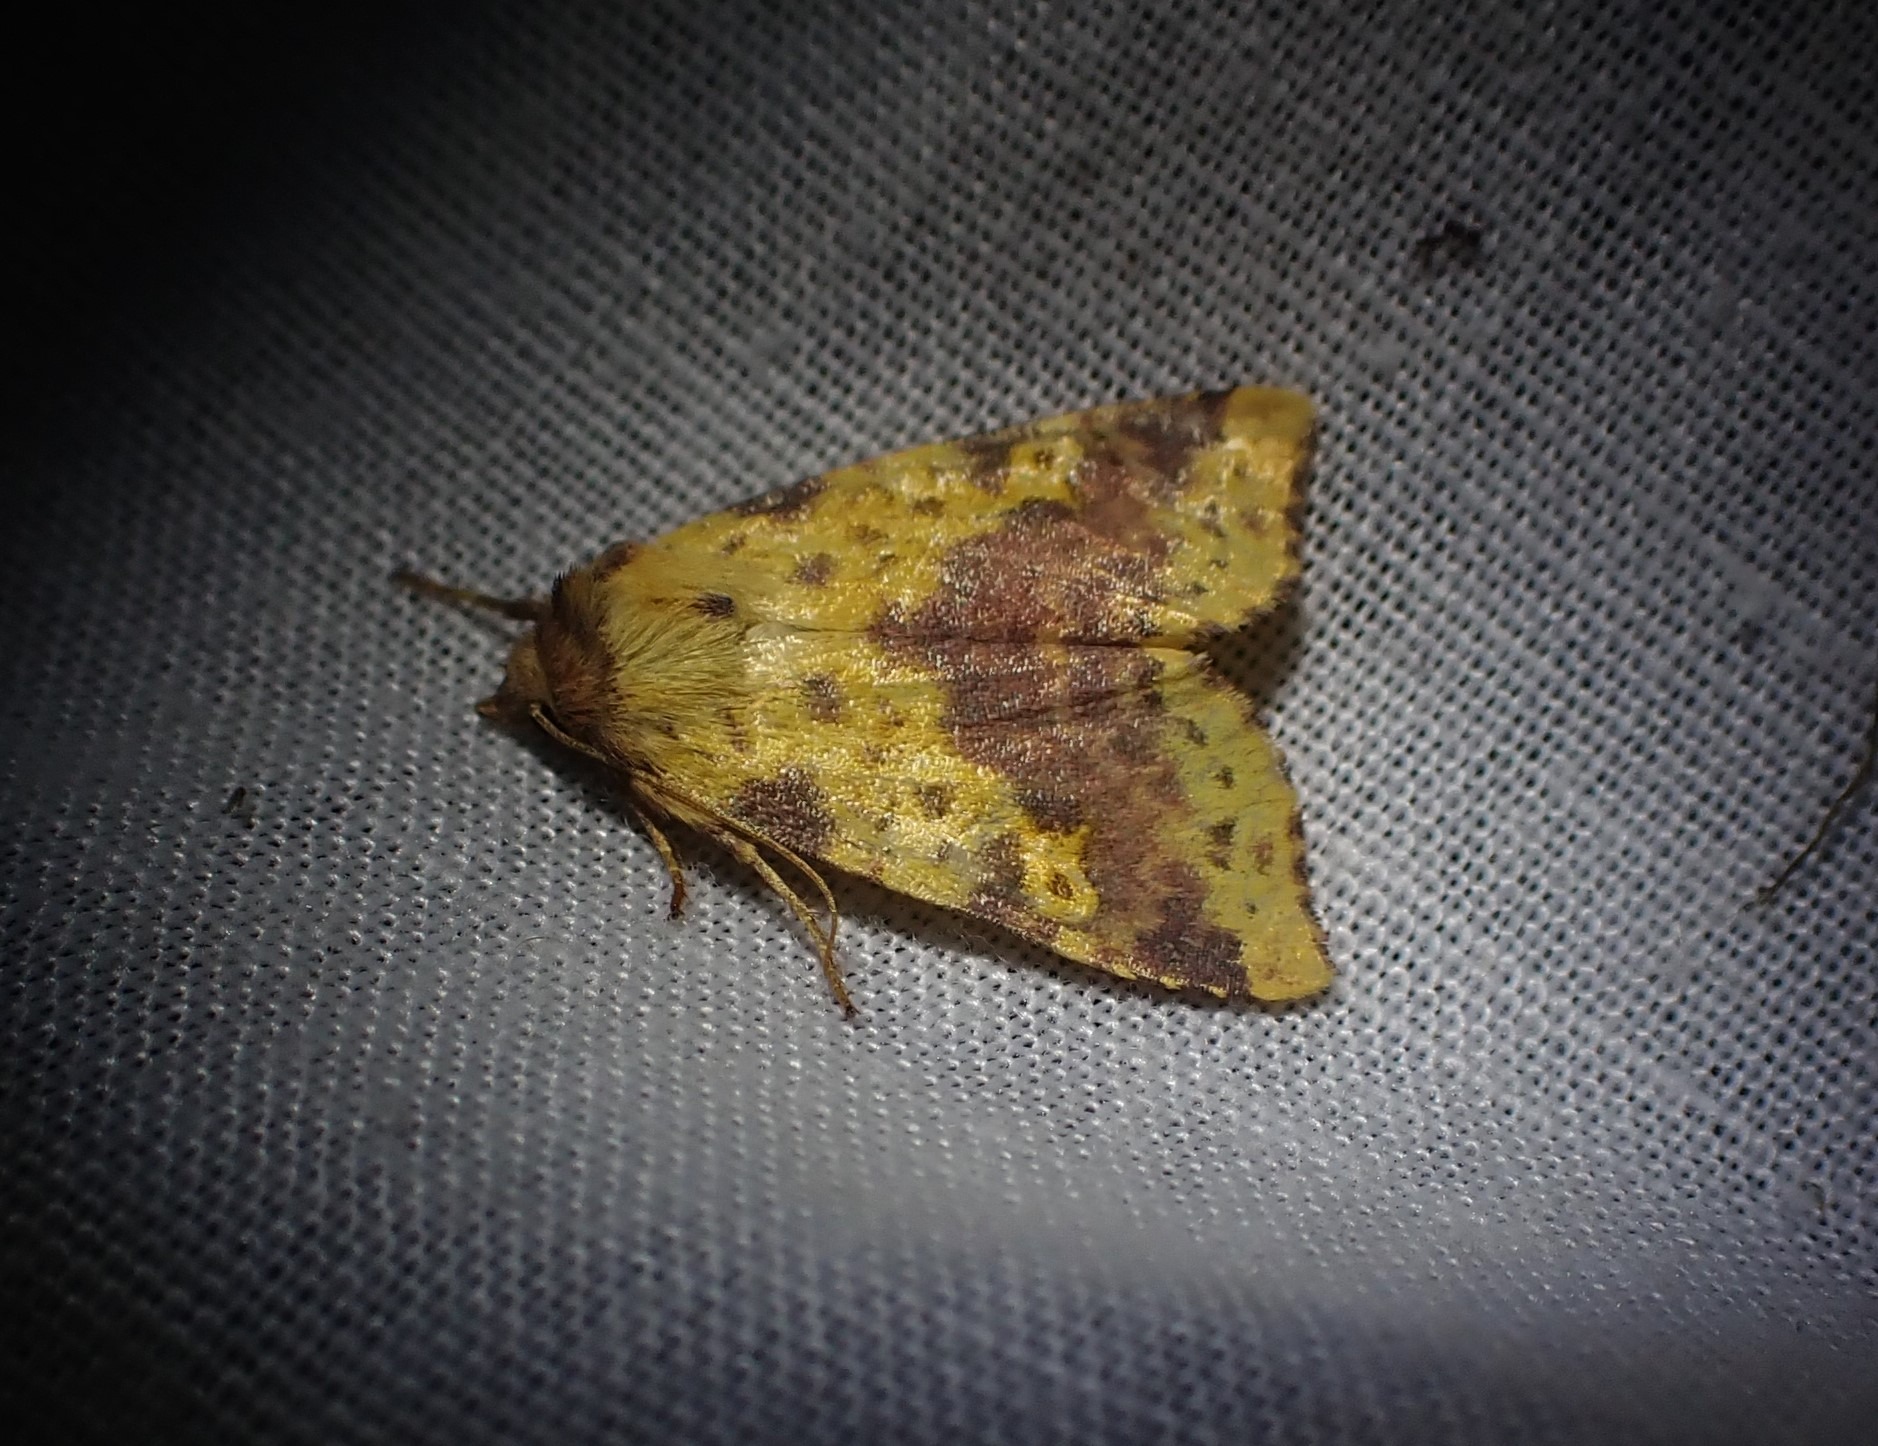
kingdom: Animalia
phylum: Arthropoda
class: Insecta
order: Lepidoptera
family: Noctuidae
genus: Xanthia
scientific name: Xanthia togata
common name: Toga-septemberugle
